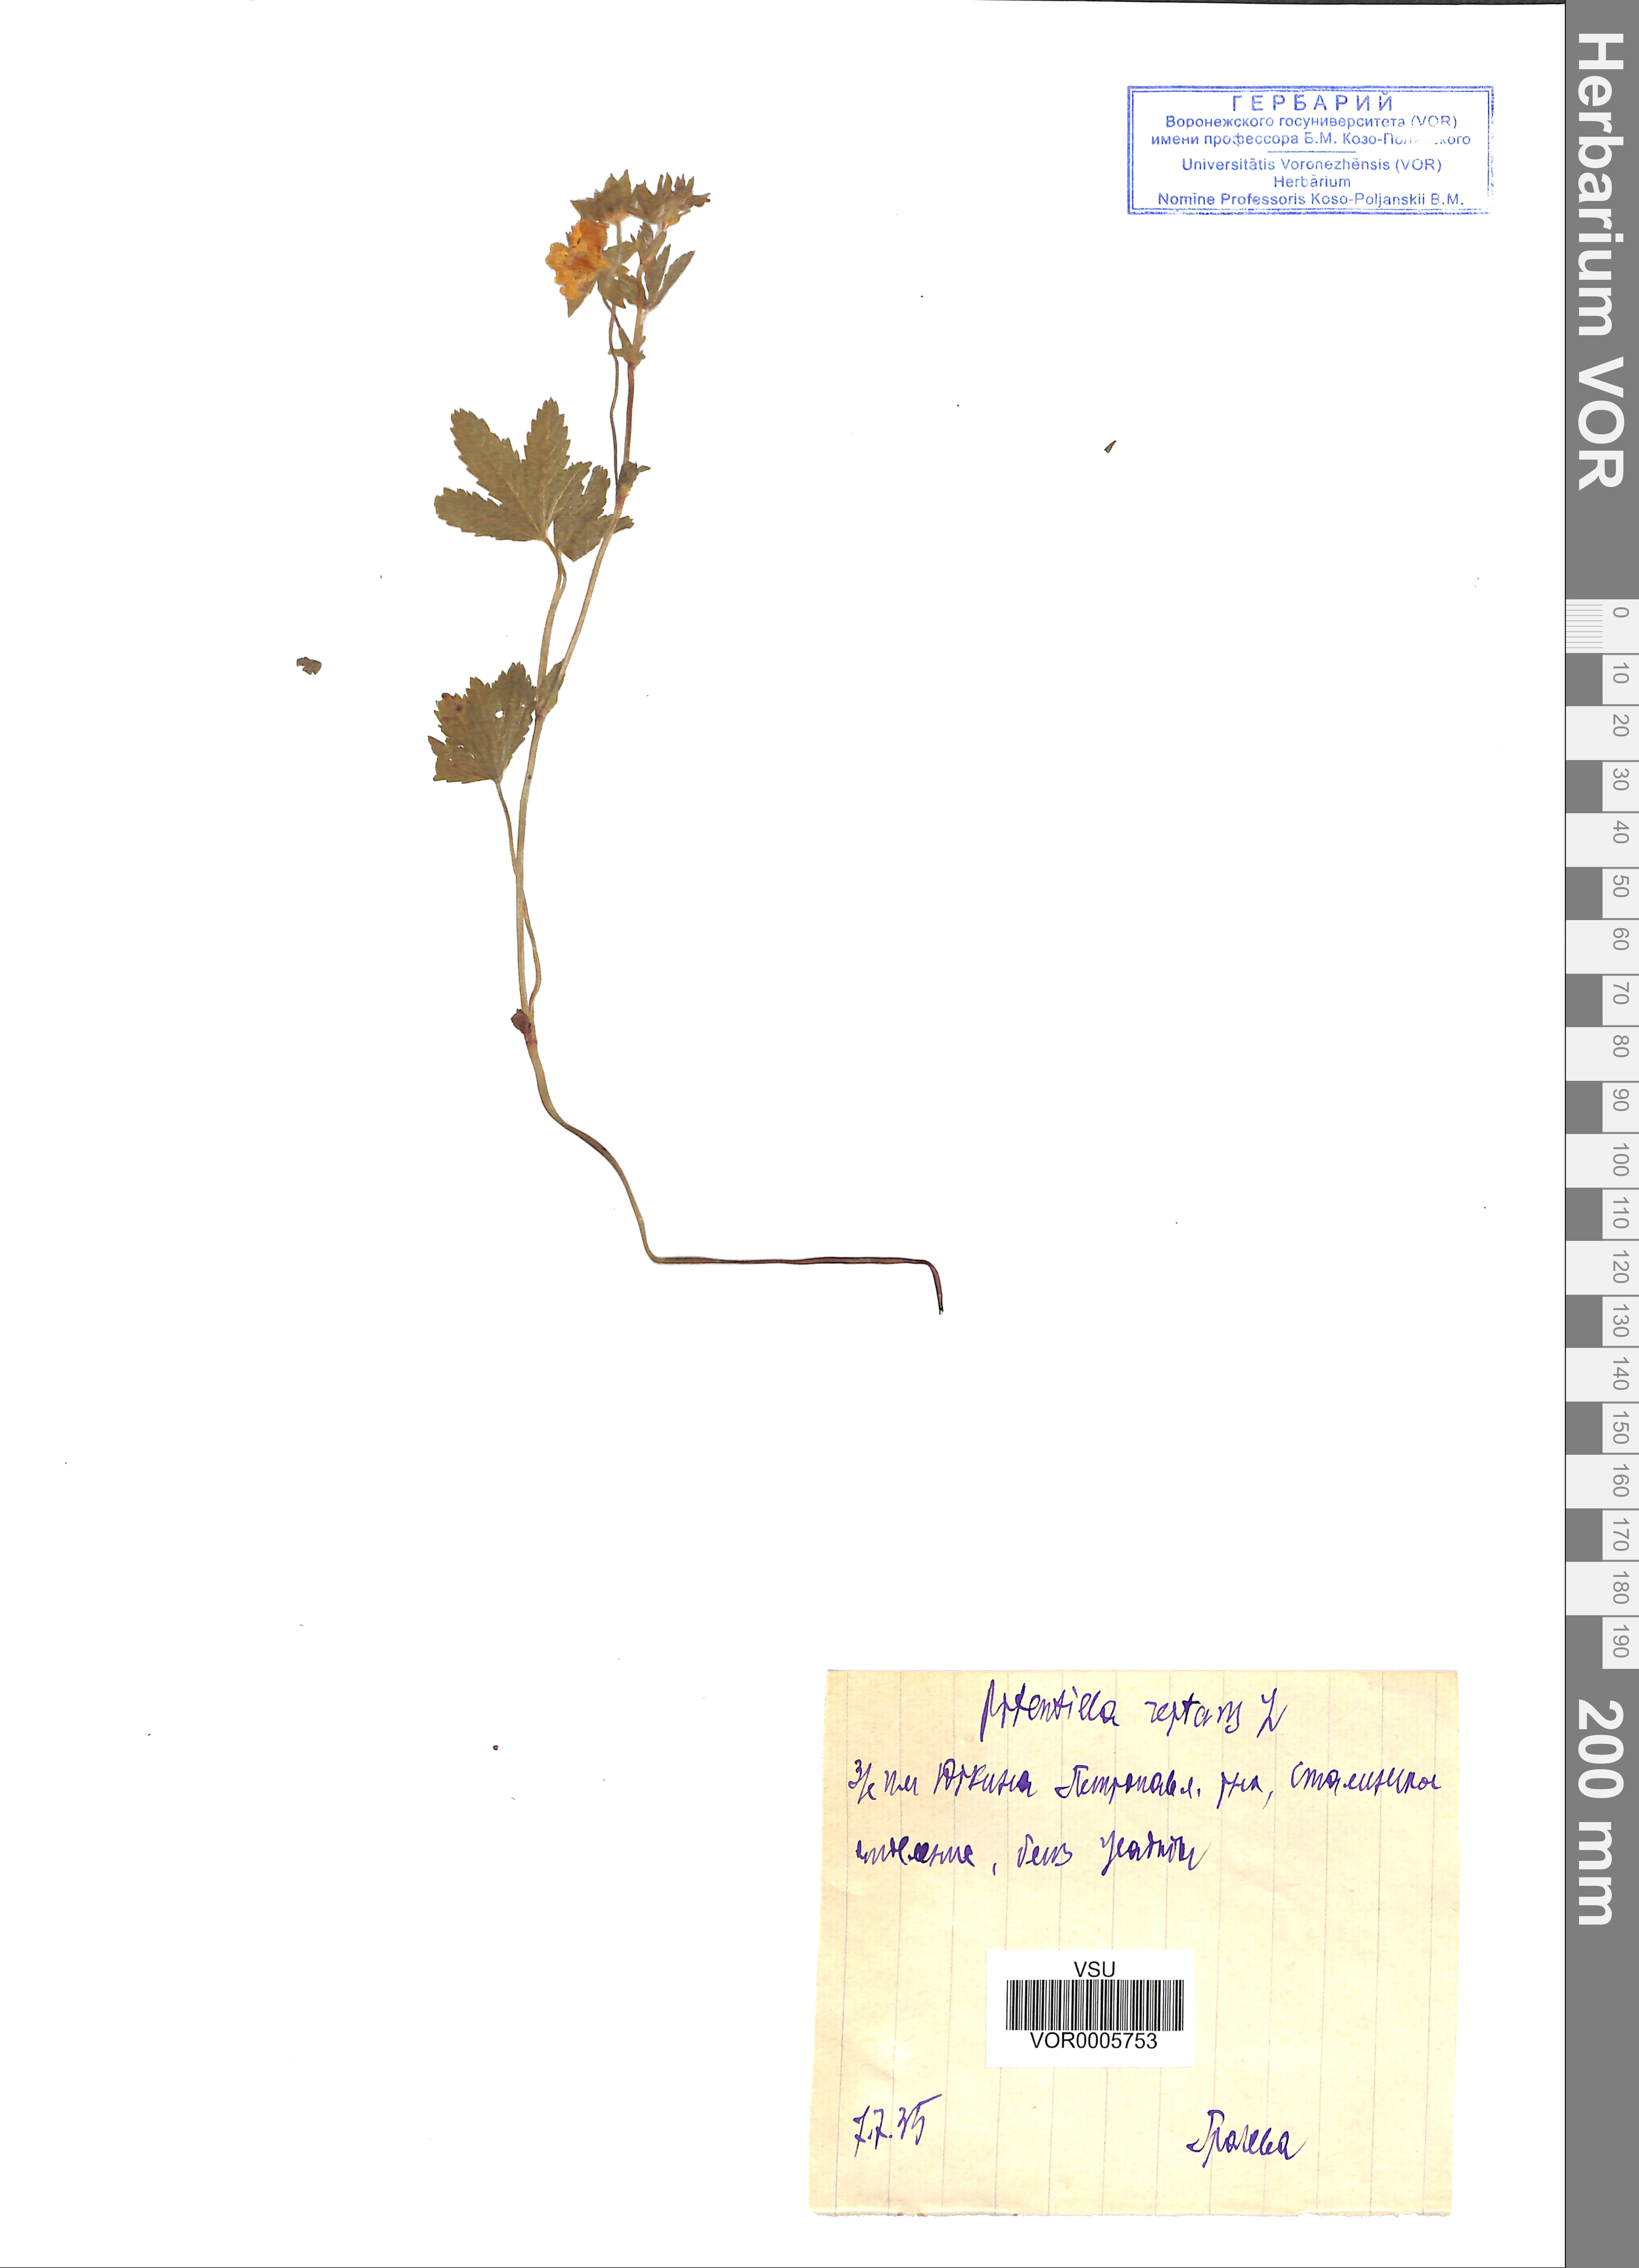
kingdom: Plantae
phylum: Tracheophyta
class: Magnoliopsida
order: Rosales
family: Rosaceae
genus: Potentilla
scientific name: Potentilla reptans
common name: Creeping cinquefoil
